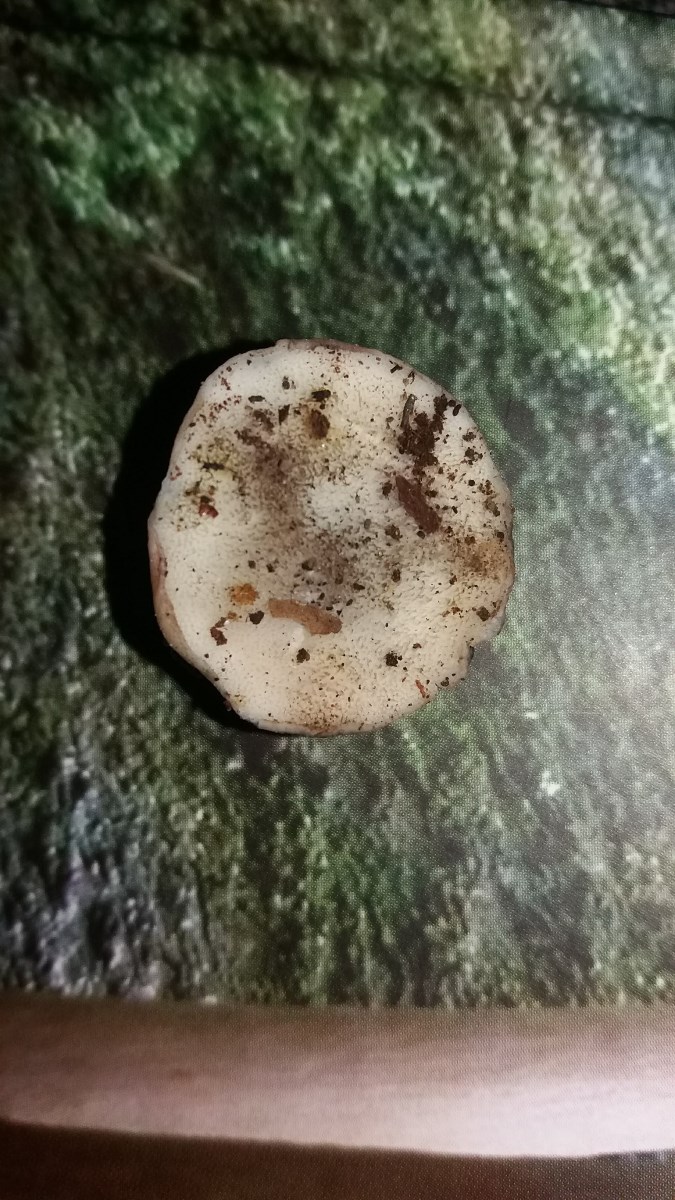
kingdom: Fungi
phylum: Basidiomycota
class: Agaricomycetes
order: Polyporales
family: Polyporaceae
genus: Cyanosporus
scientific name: Cyanosporus alni
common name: blegblå kødporesvamp
